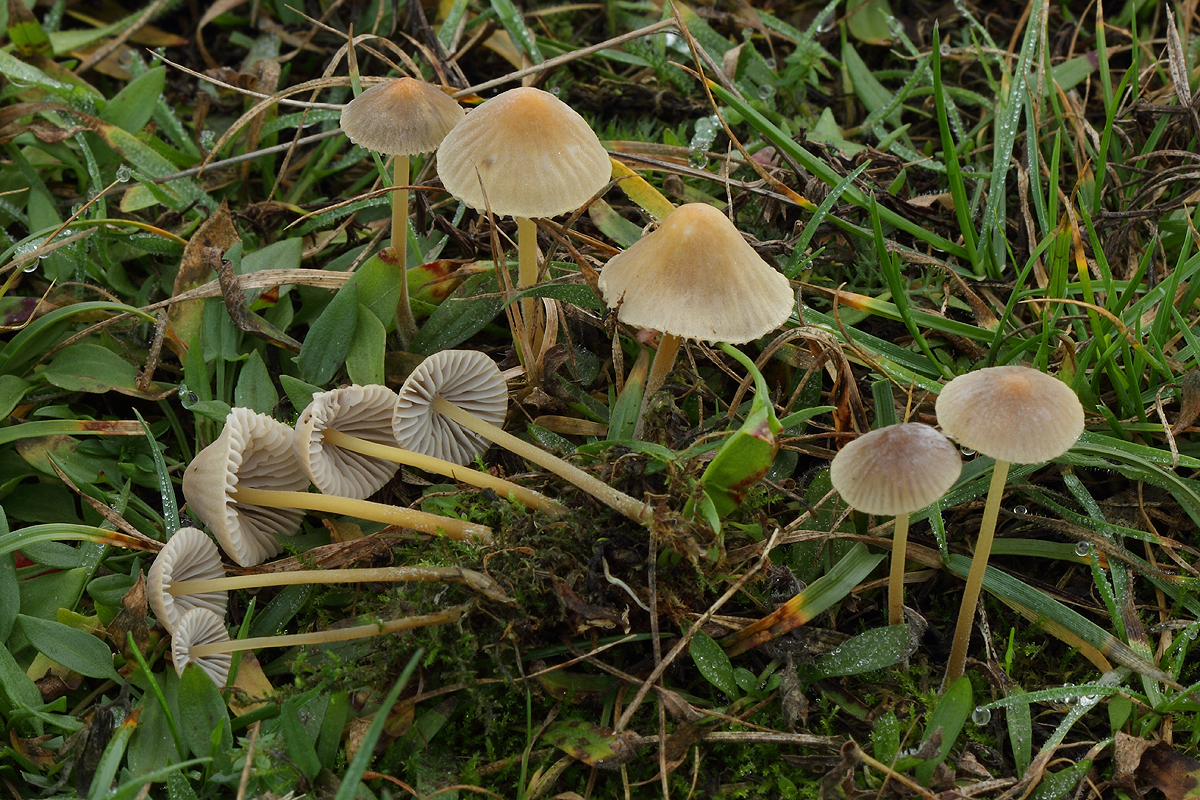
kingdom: Fungi
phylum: Basidiomycota
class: Agaricomycetes
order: Agaricales
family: Mycenaceae
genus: Mycena
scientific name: Mycena olivaceomarginata
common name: brunægget huesvamp
